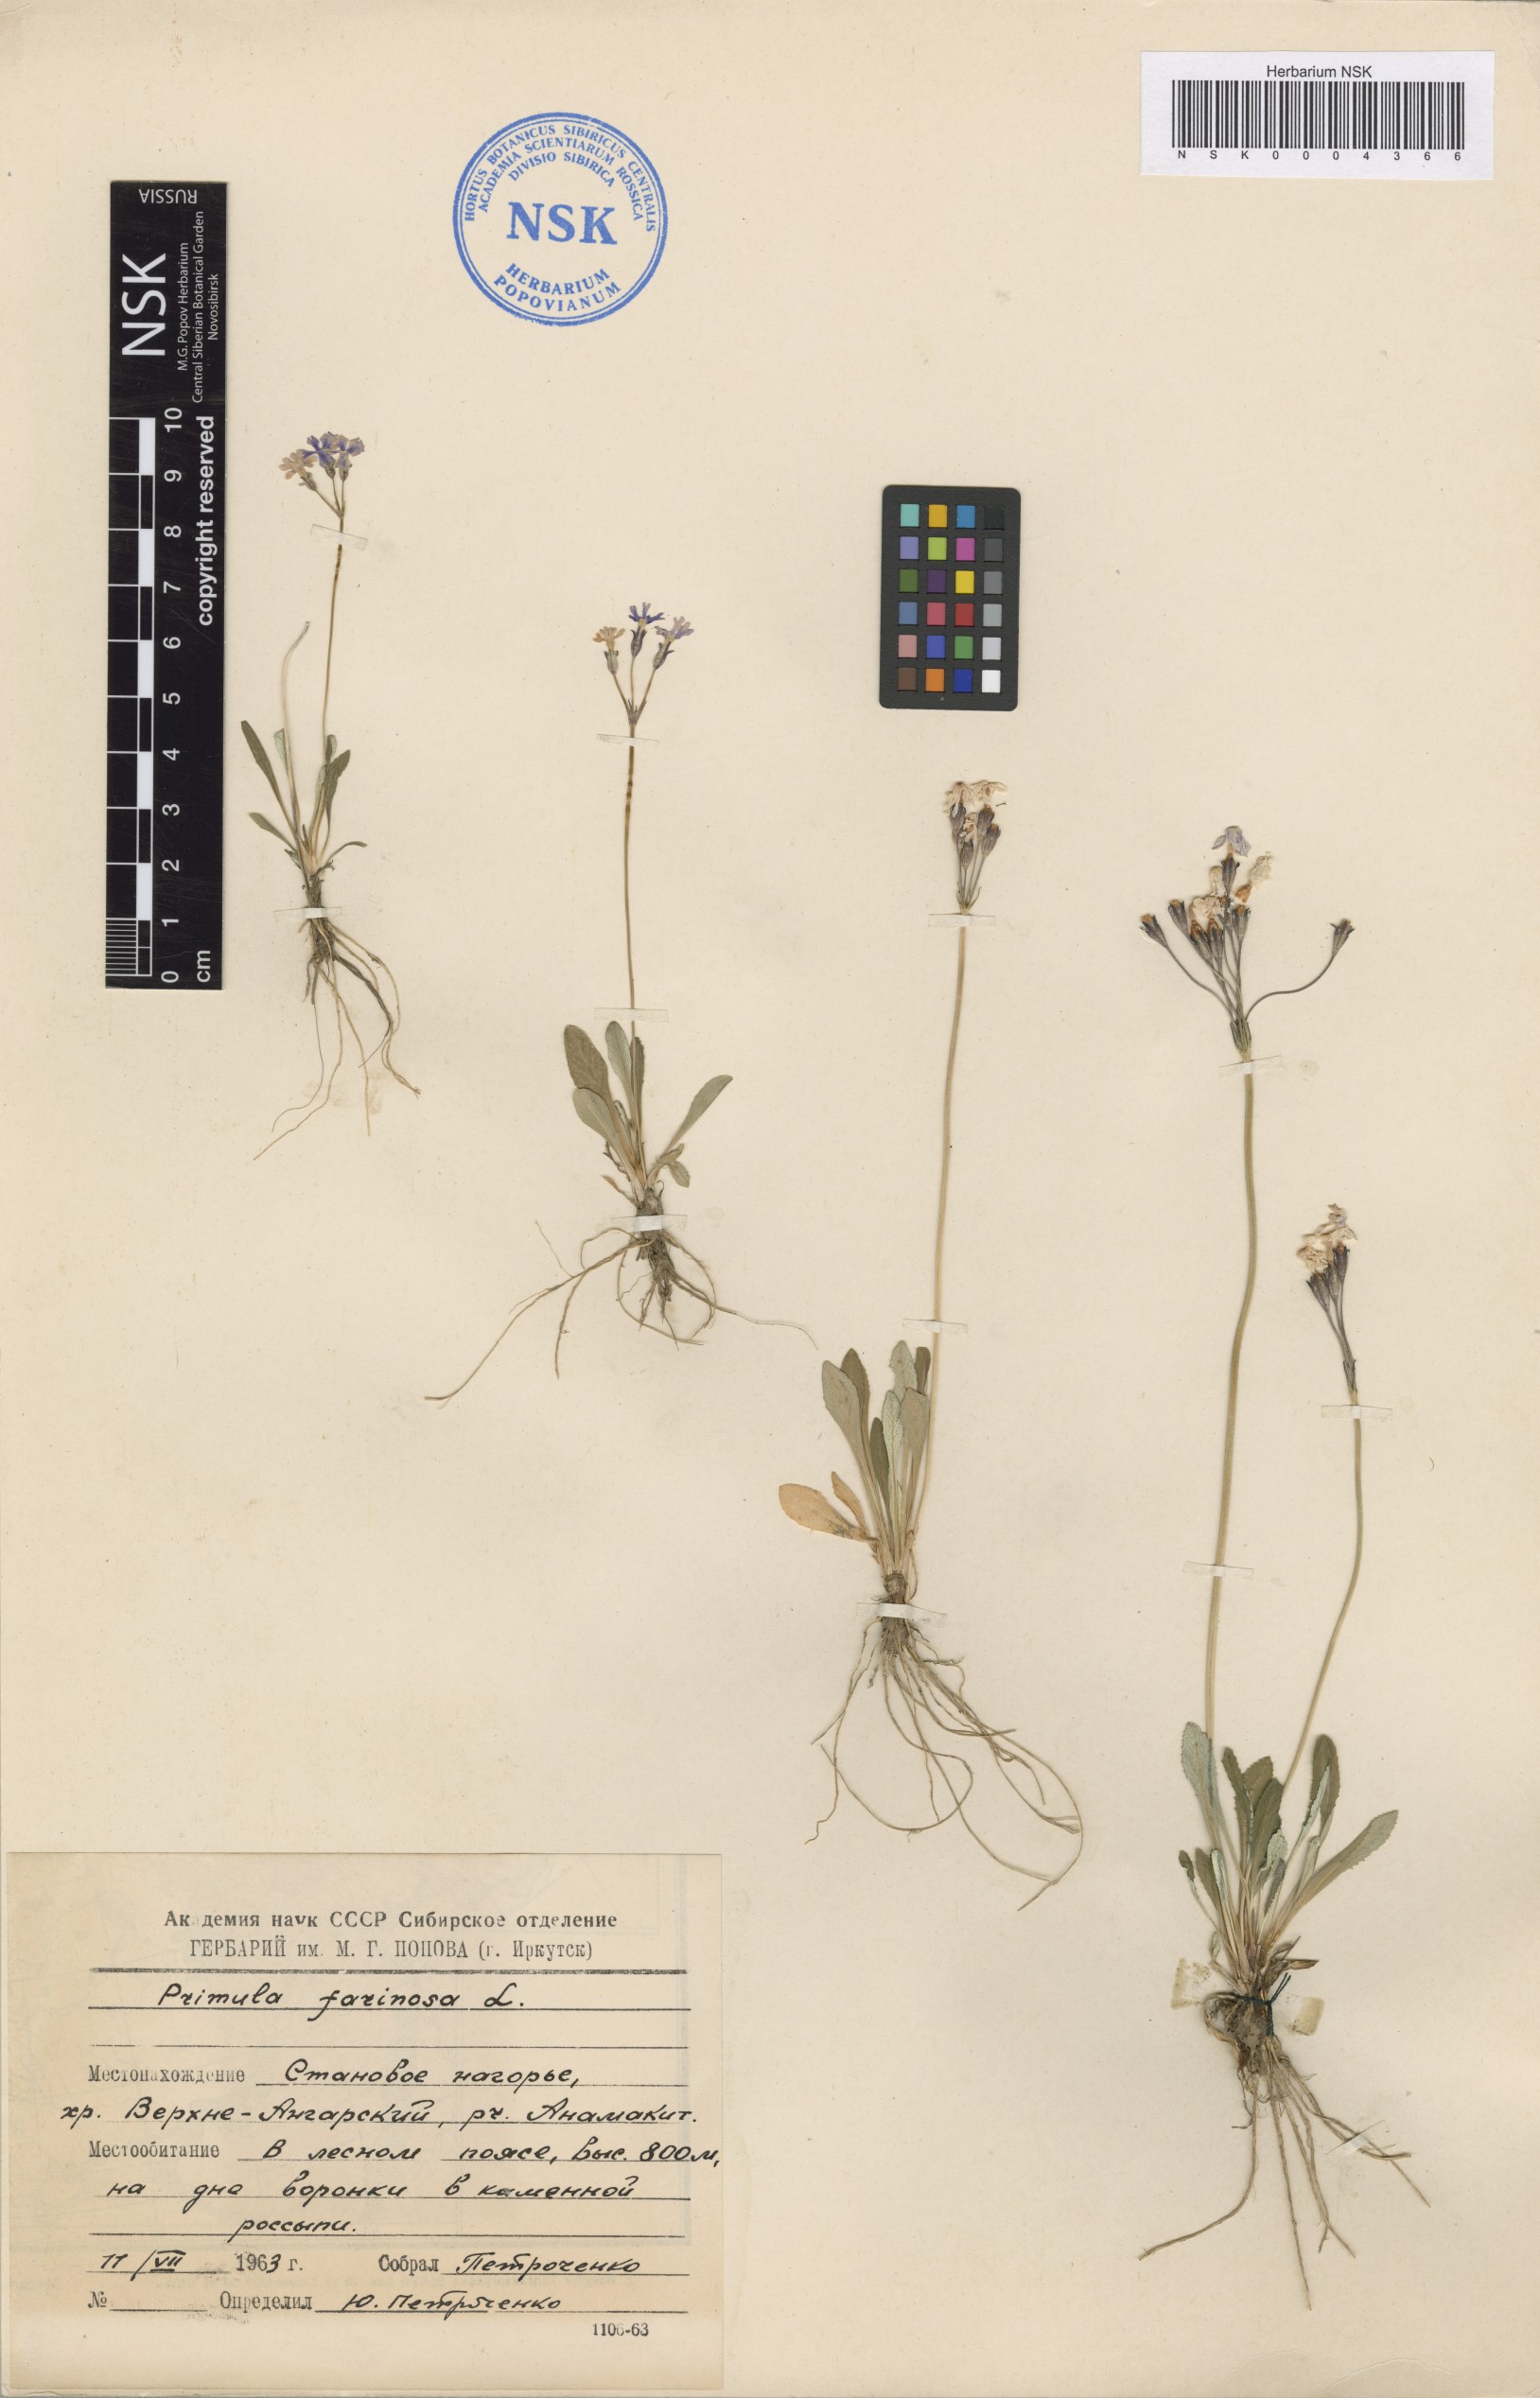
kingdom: Plantae
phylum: Tracheophyta
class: Magnoliopsida
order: Ericales
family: Primulaceae
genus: Primula
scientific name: Primula farinosa
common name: Bird's-eye primrose
